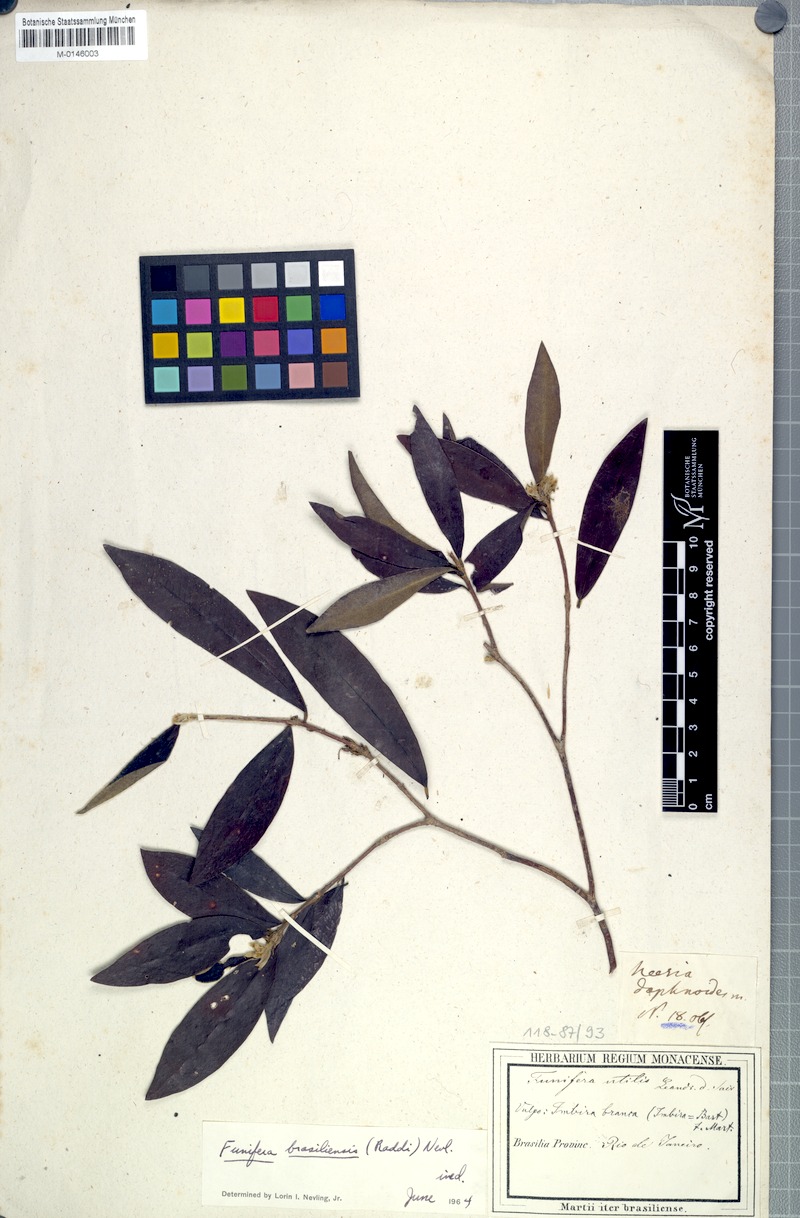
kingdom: Plantae
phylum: Tracheophyta
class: Magnoliopsida
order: Malvales
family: Thymelaeaceae
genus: Funifera
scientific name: Funifera brasiliensis
